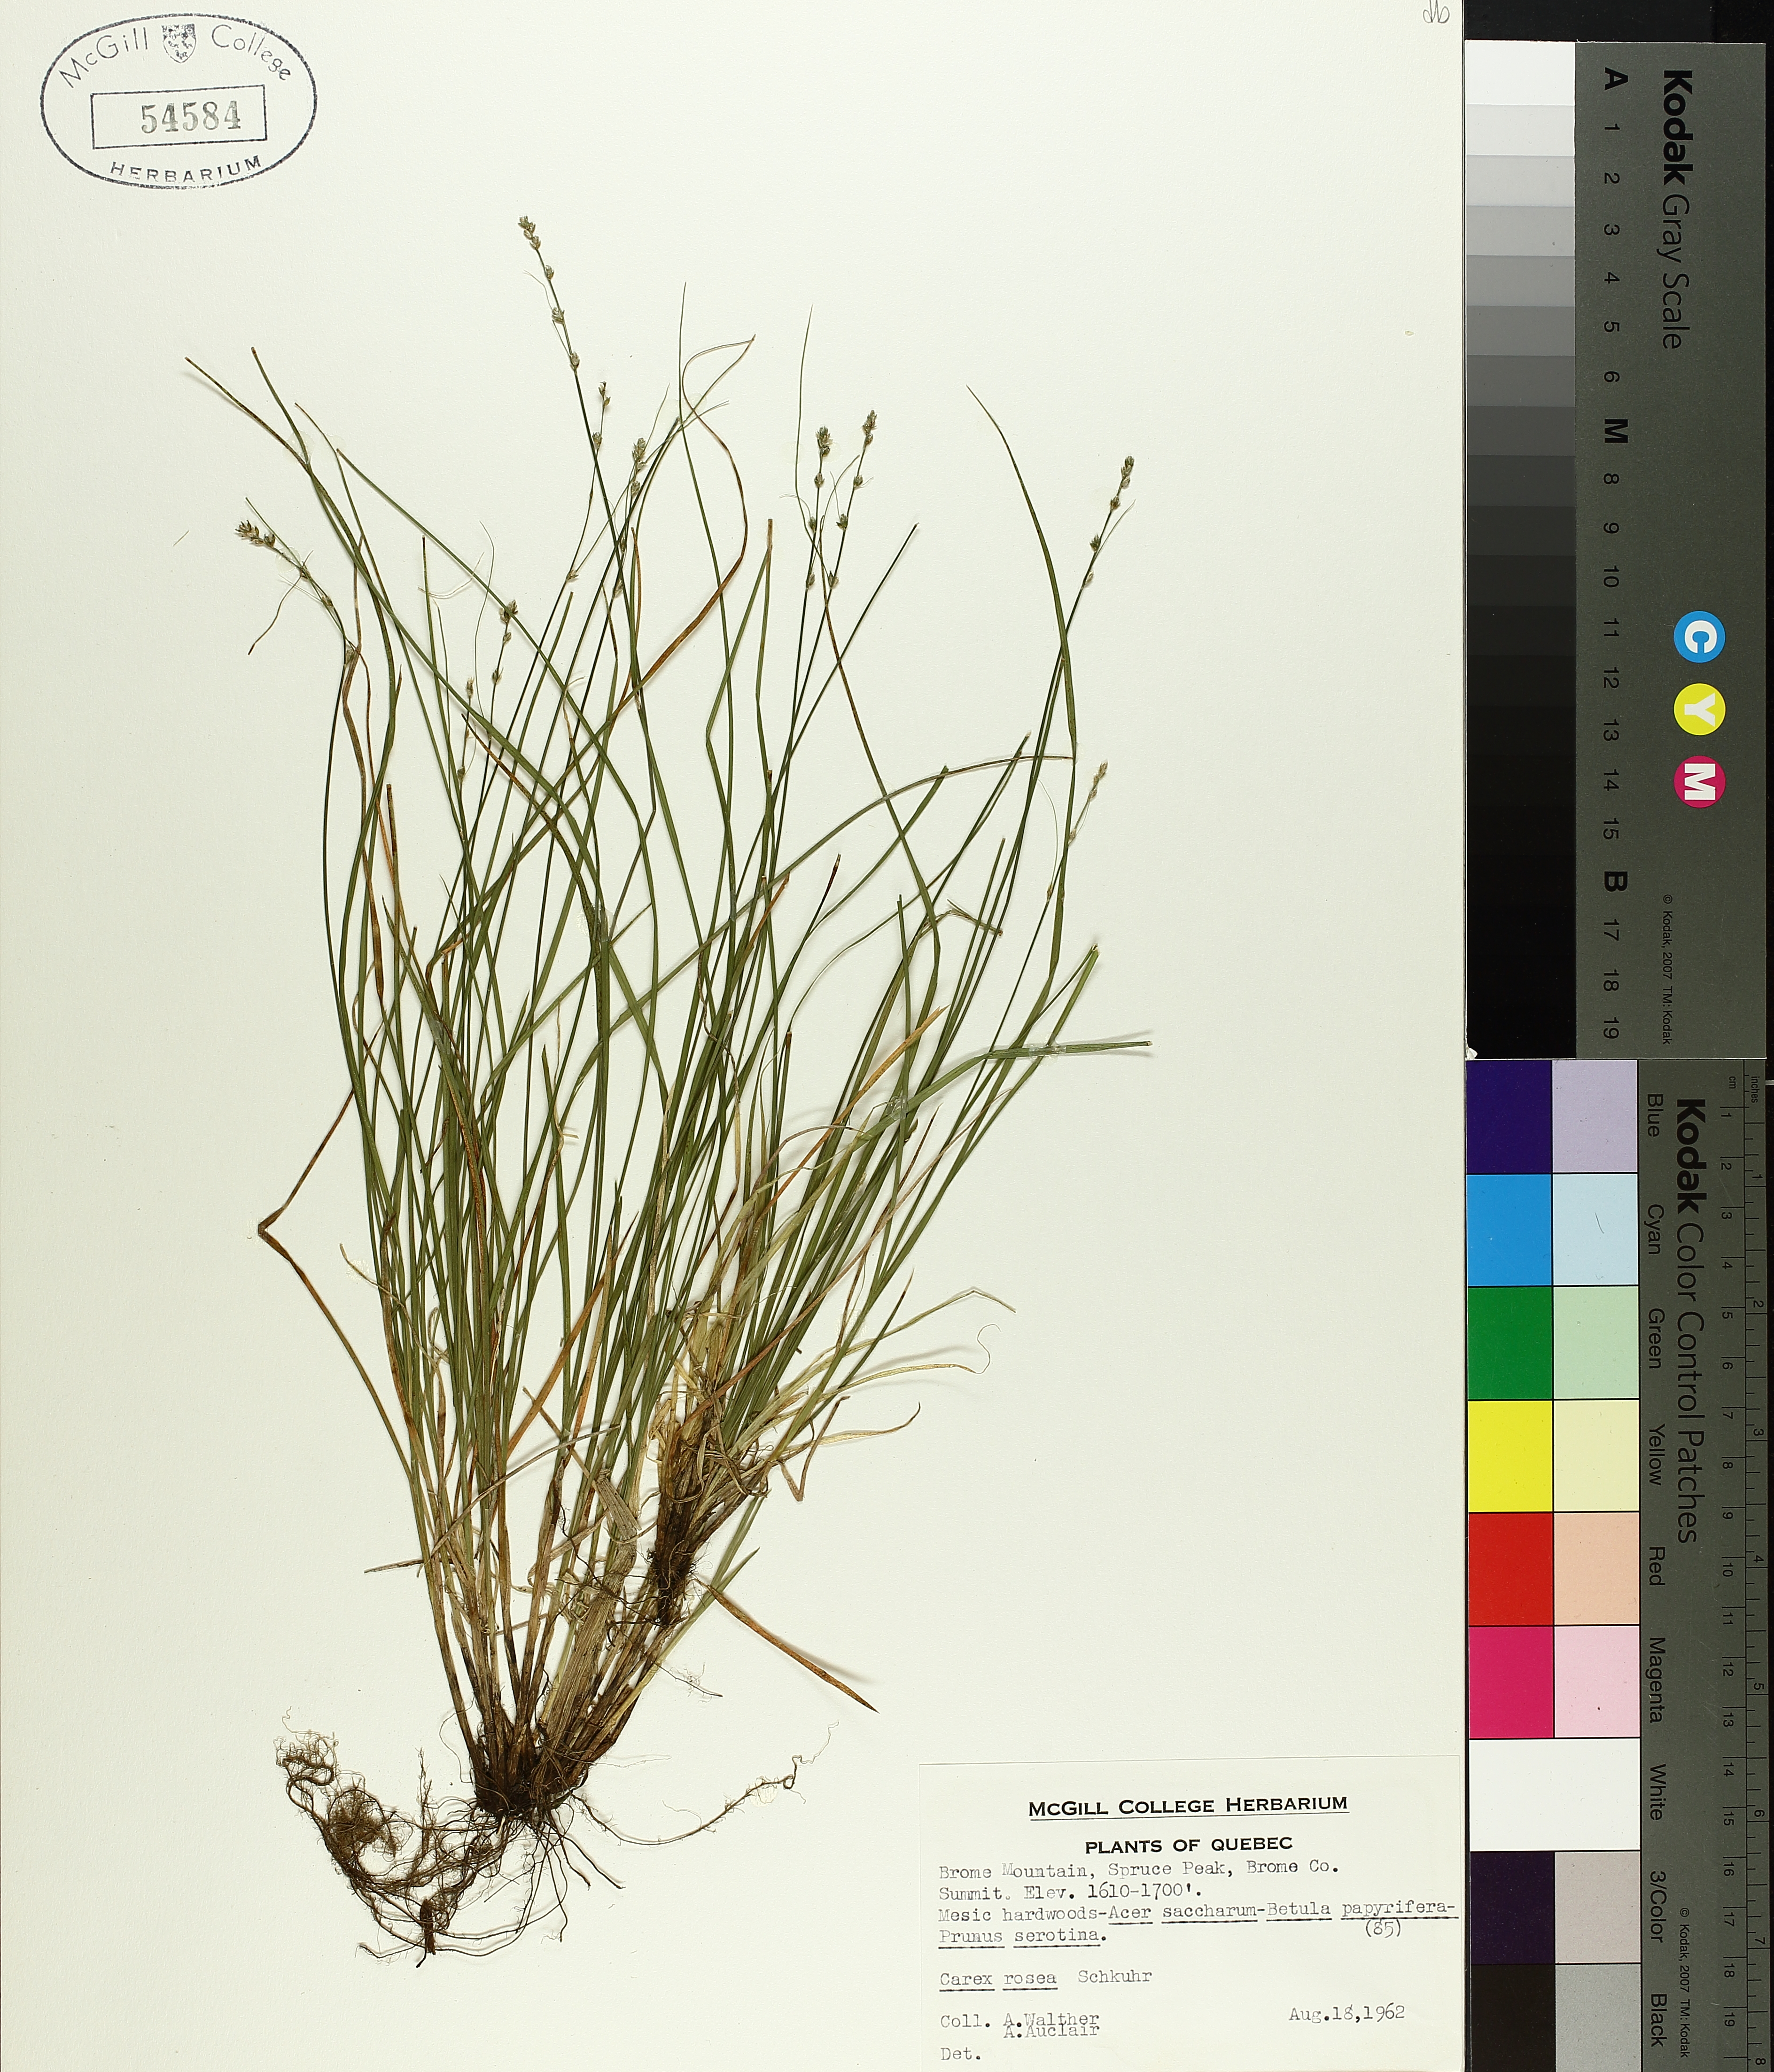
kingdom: Plantae
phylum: Tracheophyta
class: Liliopsida
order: Poales
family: Cyperaceae
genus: Carex
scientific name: Carex rosea
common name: Curly-styled wood sedge
